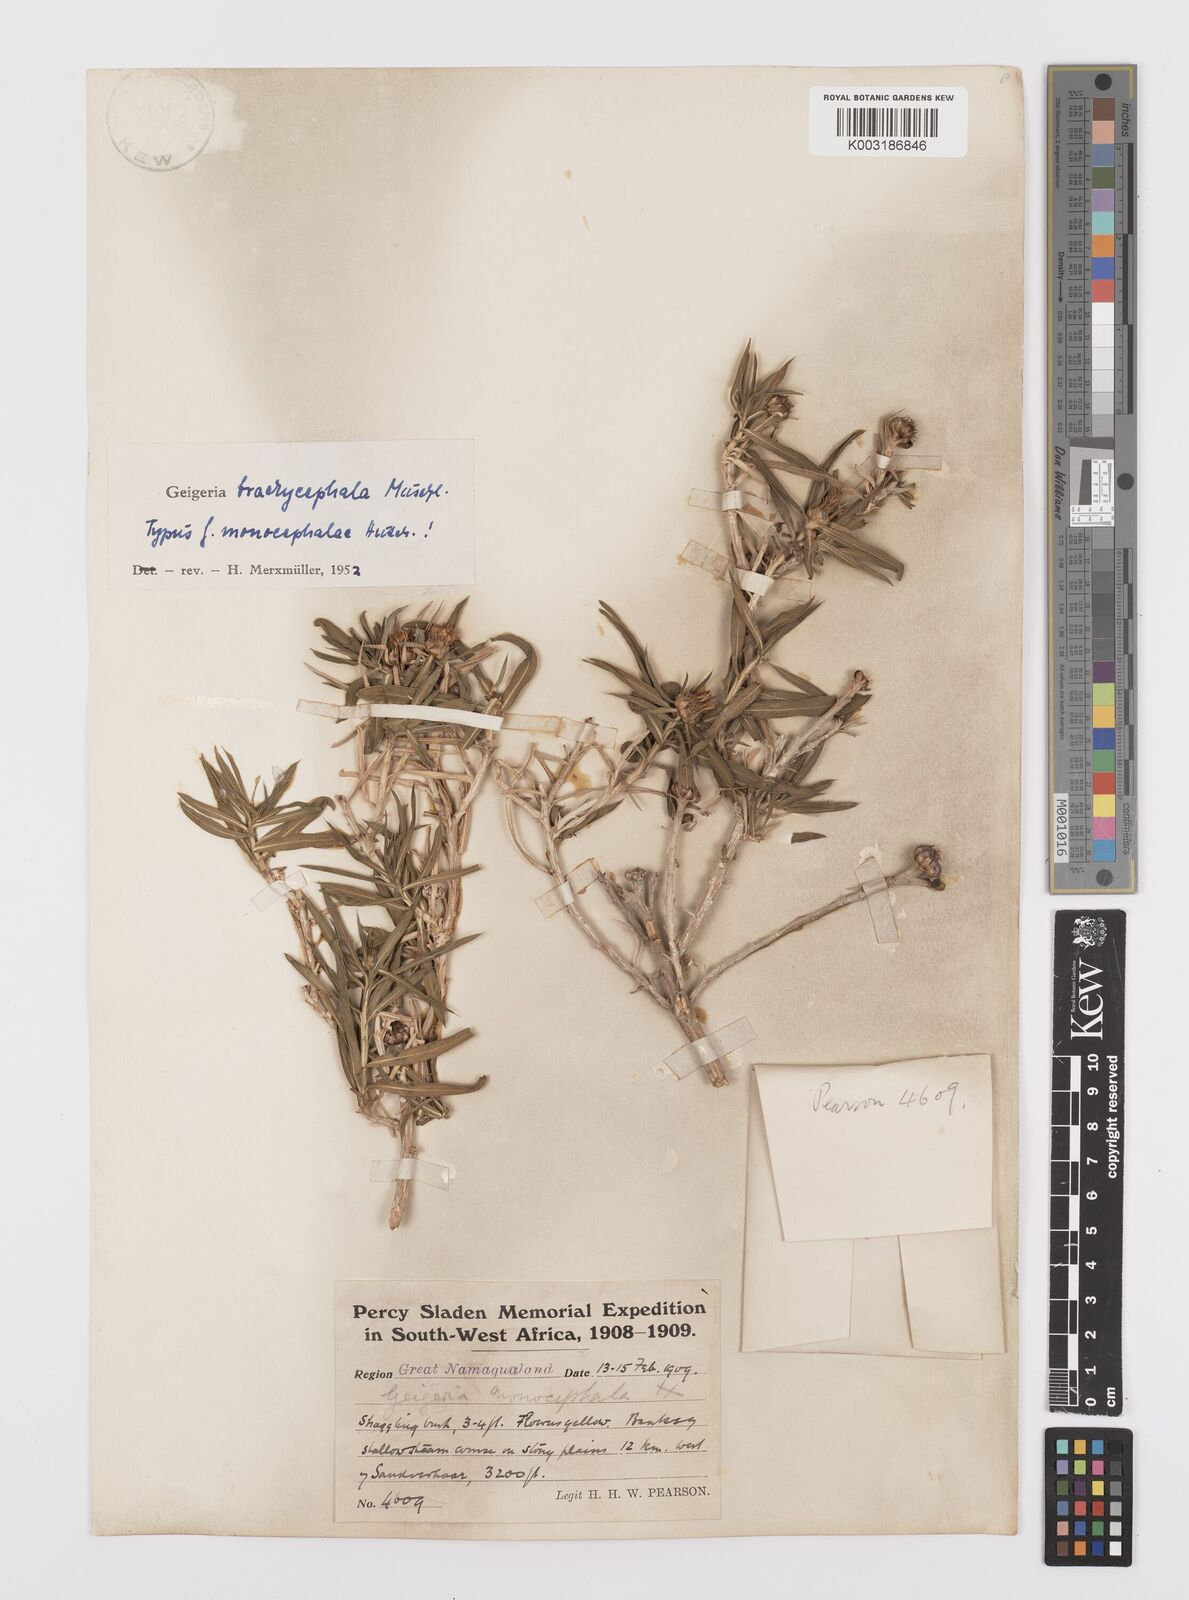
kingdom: Plantae
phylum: Tracheophyta
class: Magnoliopsida
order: Asterales
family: Asteraceae
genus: Geigeria
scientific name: Geigeria plumosa
